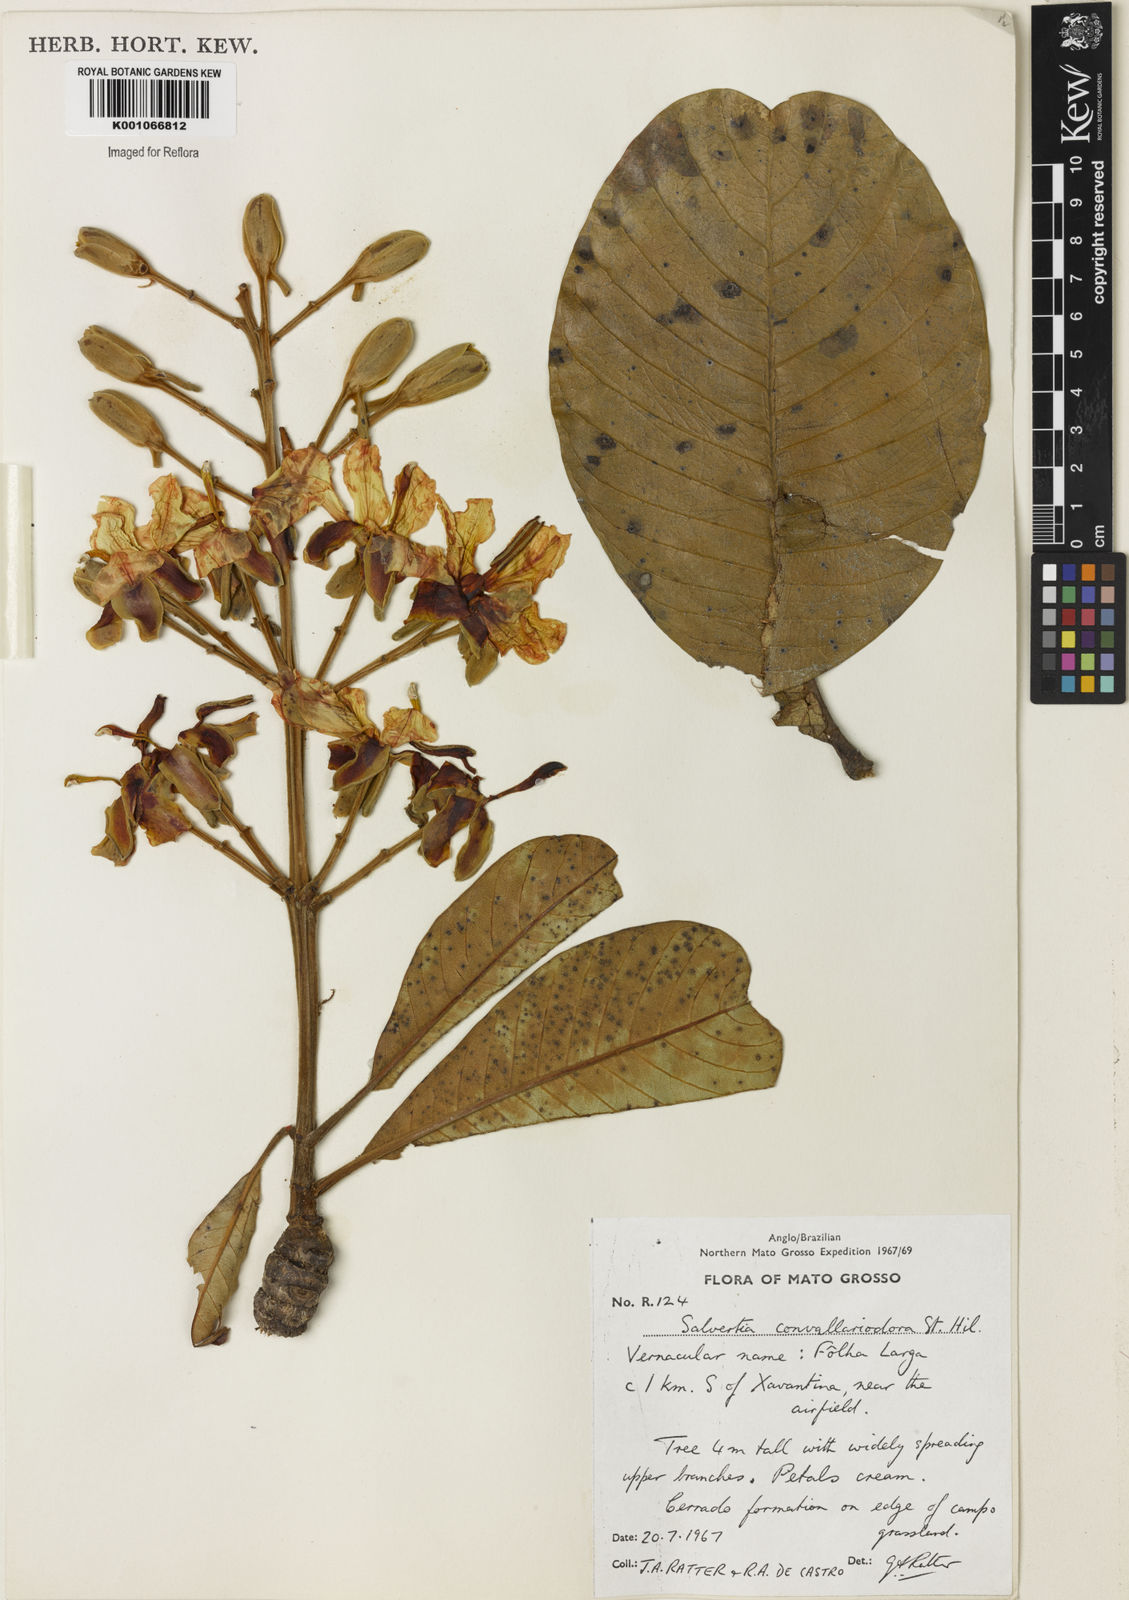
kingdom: Plantae
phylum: Tracheophyta
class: Magnoliopsida
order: Myrtales
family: Vochysiaceae
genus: Salvertia
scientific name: Salvertia convallariodora
